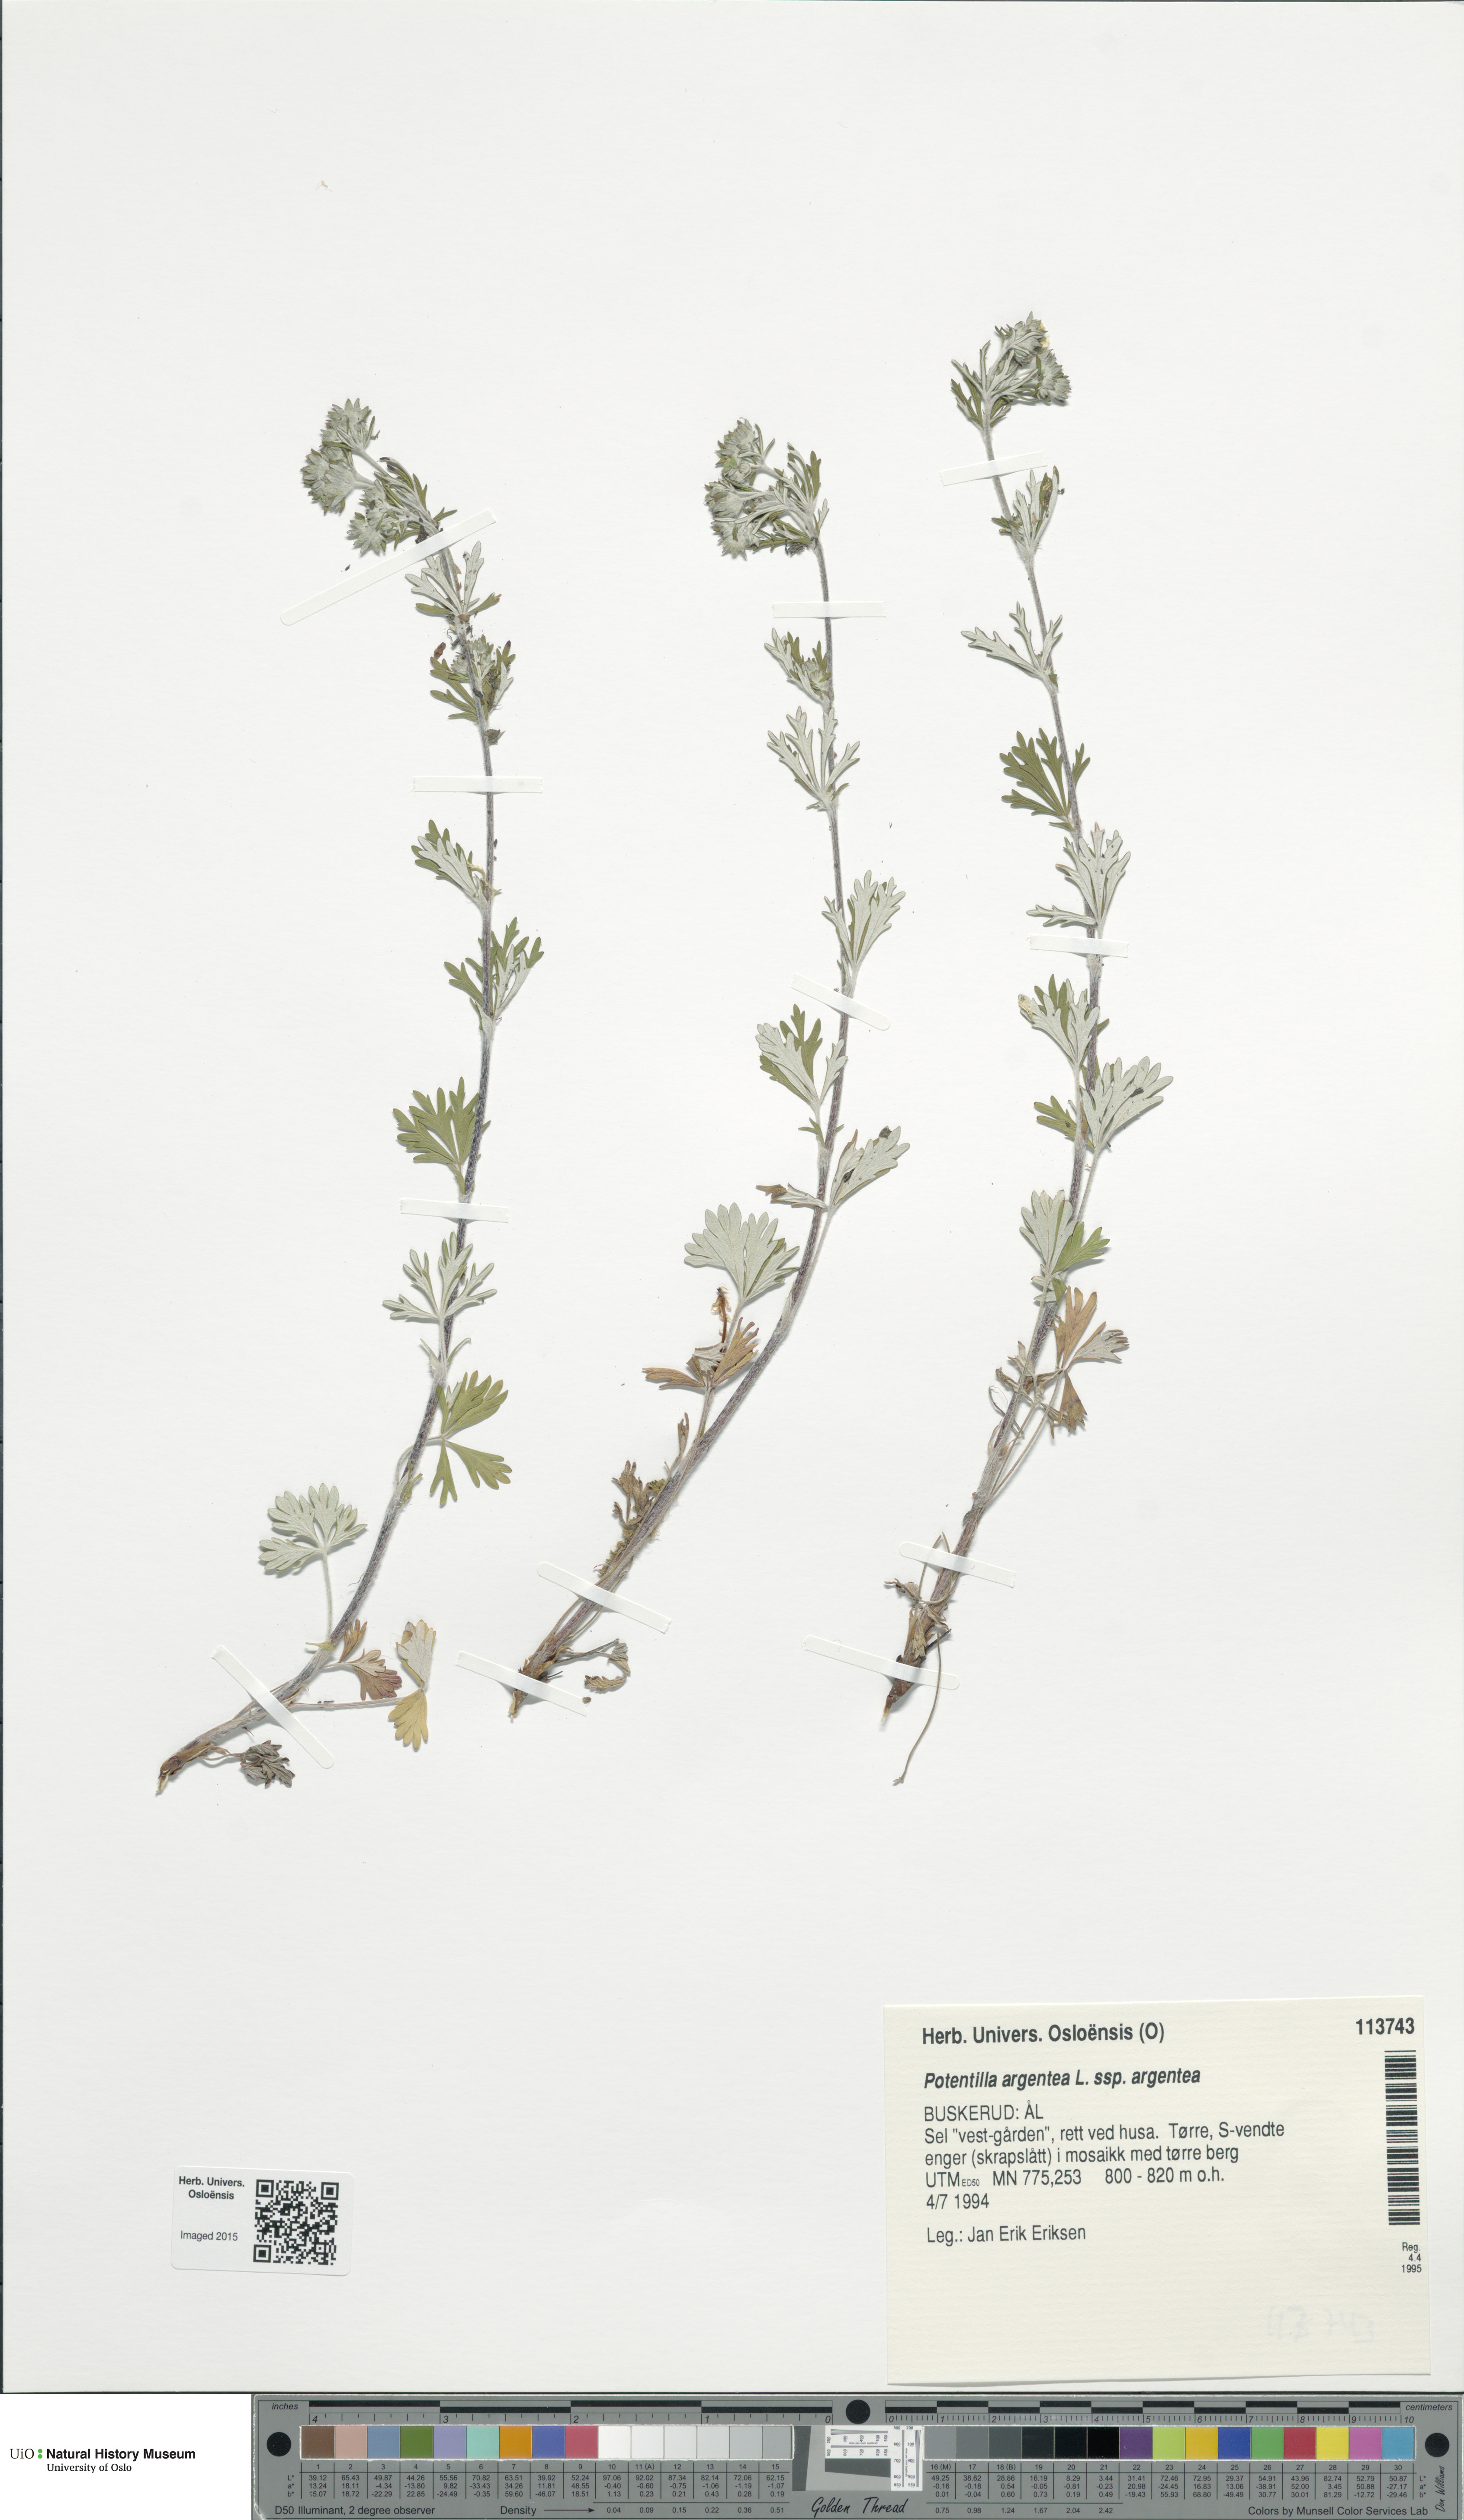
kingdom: Plantae
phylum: Tracheophyta
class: Magnoliopsida
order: Rosales
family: Rosaceae
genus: Potentilla
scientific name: Potentilla argentea
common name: Hoary cinquefoil
